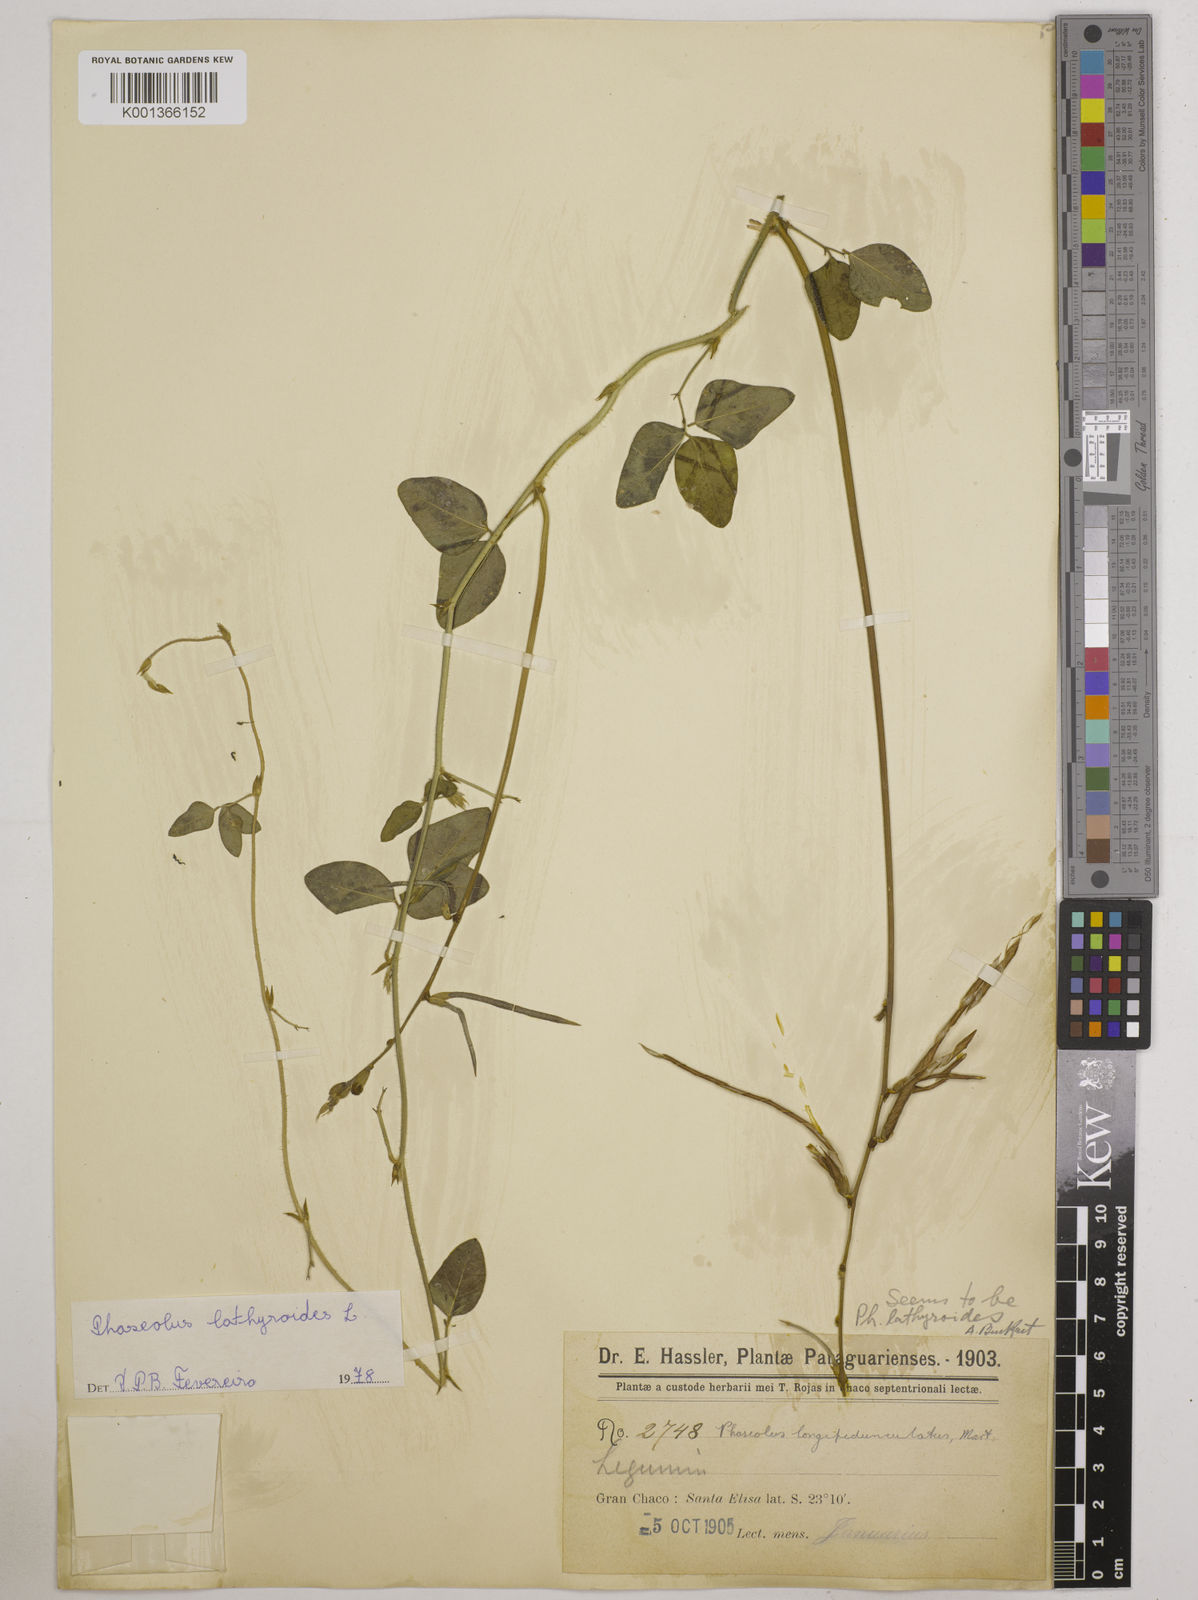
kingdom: Plantae
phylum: Tracheophyta
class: Magnoliopsida
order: Fabales
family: Fabaceae
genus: Macroptilium
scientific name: Macroptilium lathyroides
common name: Wild bushbean
